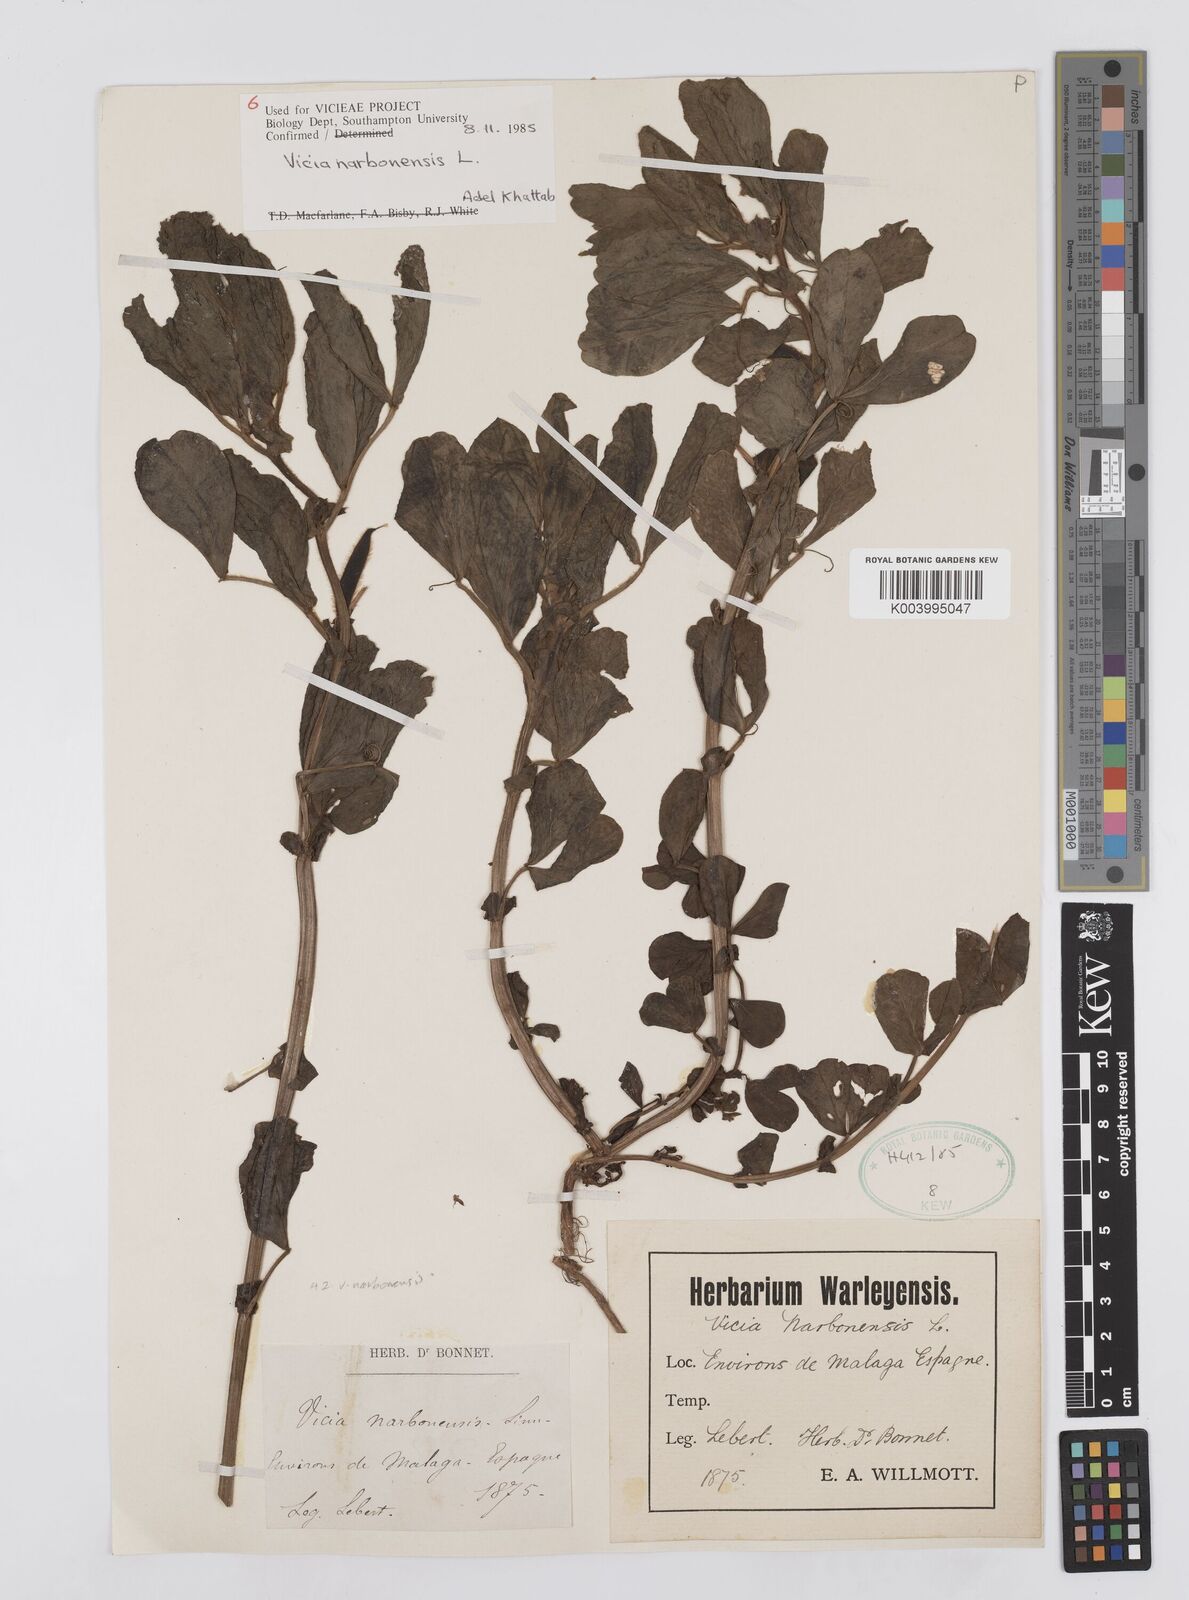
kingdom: Plantae
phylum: Tracheophyta
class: Magnoliopsida
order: Fabales
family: Fabaceae
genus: Vicia
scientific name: Vicia narbonensis
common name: Narbonne vetch
